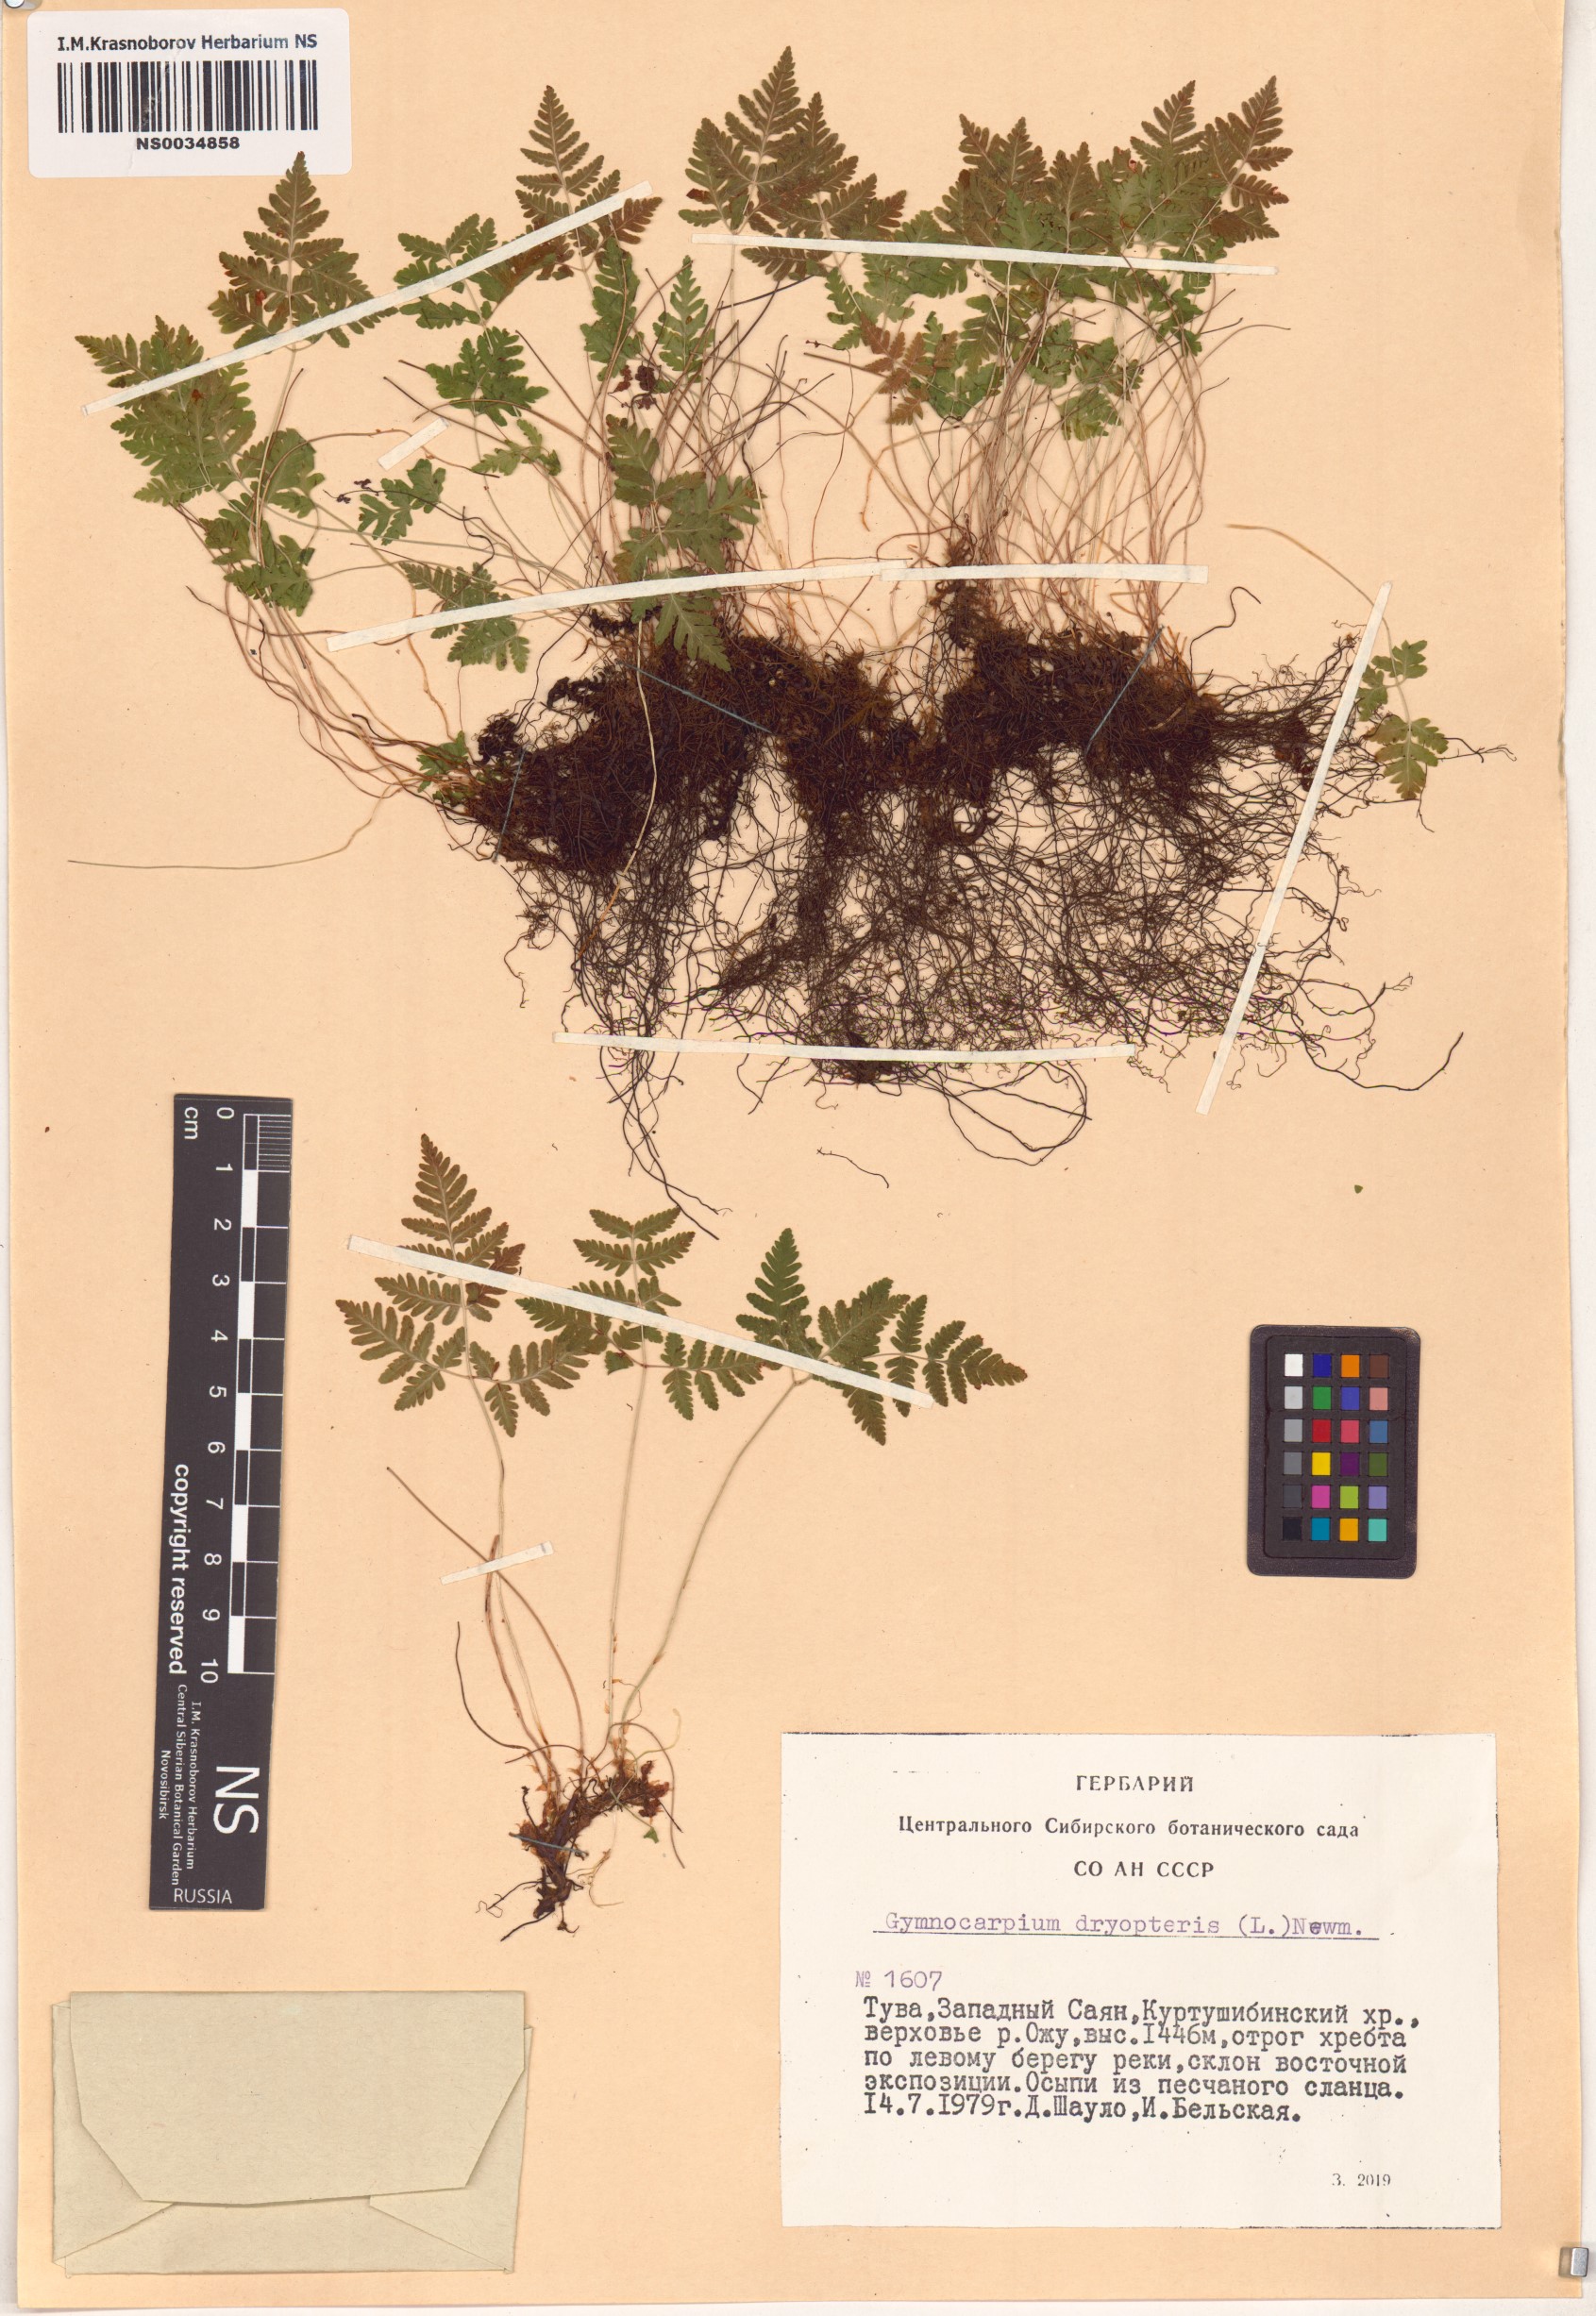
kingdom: Plantae
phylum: Tracheophyta
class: Polypodiopsida
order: Polypodiales
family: Cystopteridaceae
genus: Gymnocarpium
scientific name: Gymnocarpium dryopteris
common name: Oak fern
